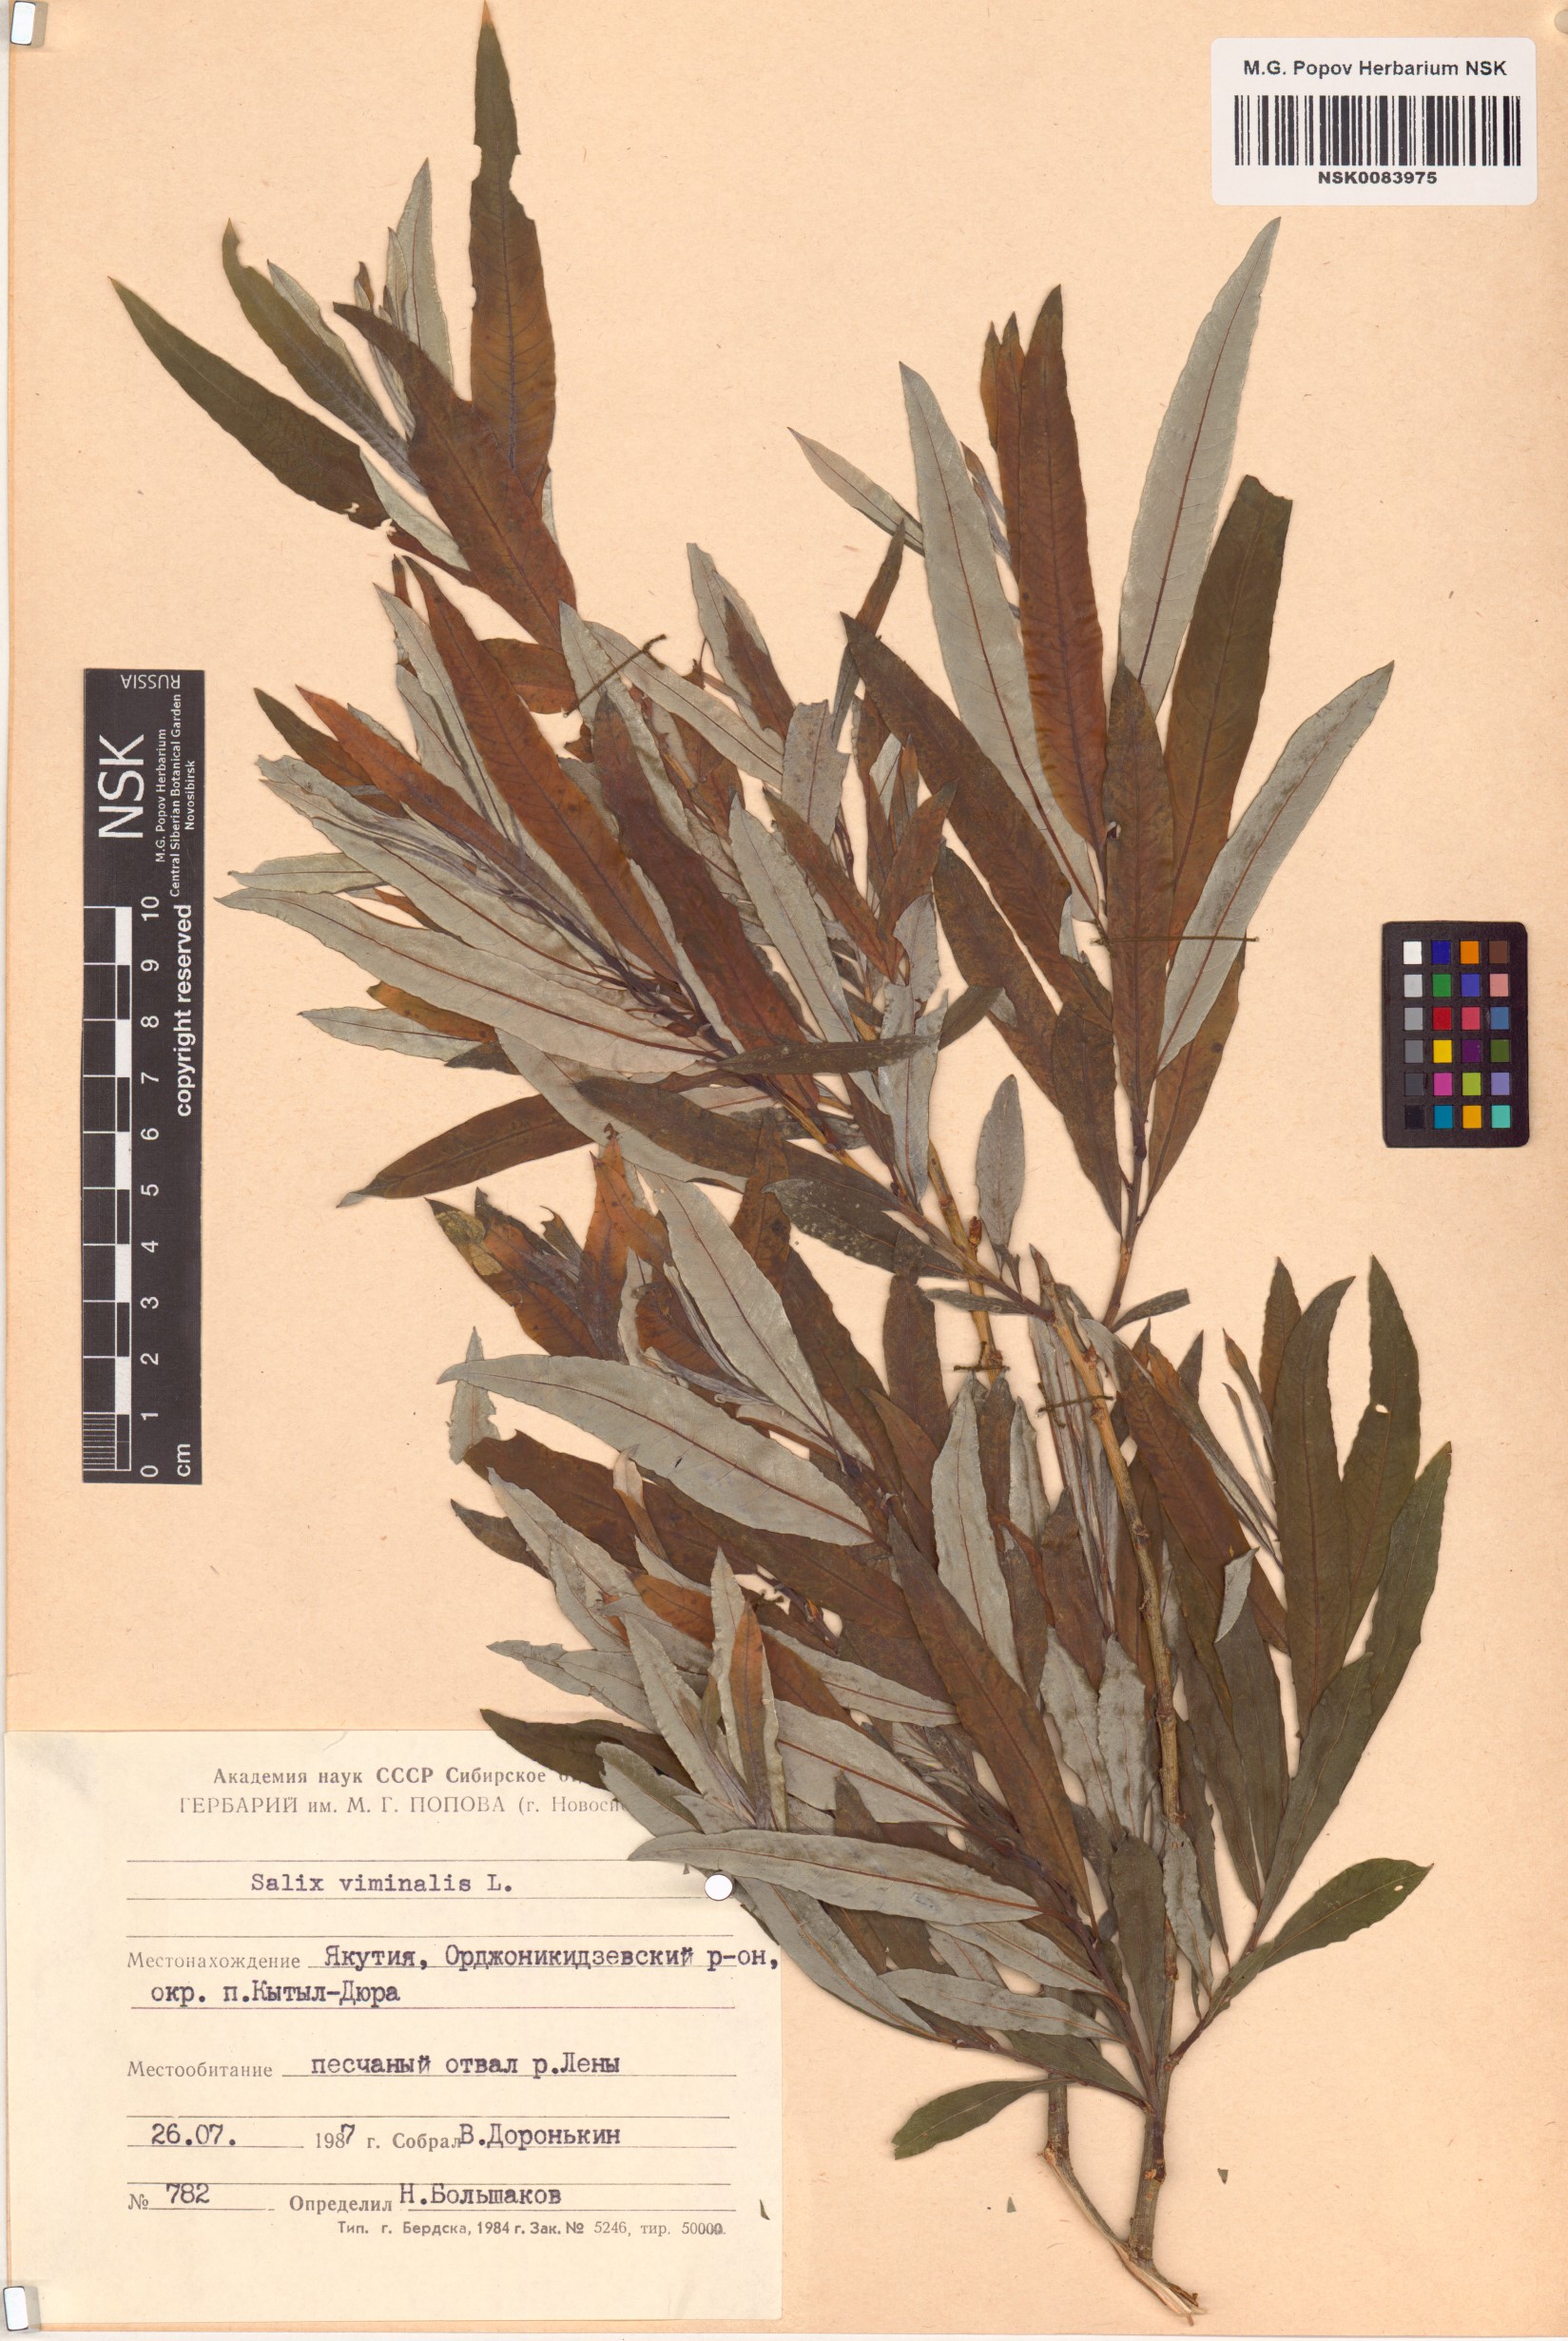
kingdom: Plantae
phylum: Tracheophyta
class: Magnoliopsida
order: Malpighiales
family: Salicaceae
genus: Salix
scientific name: Salix viminalis
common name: Osier
